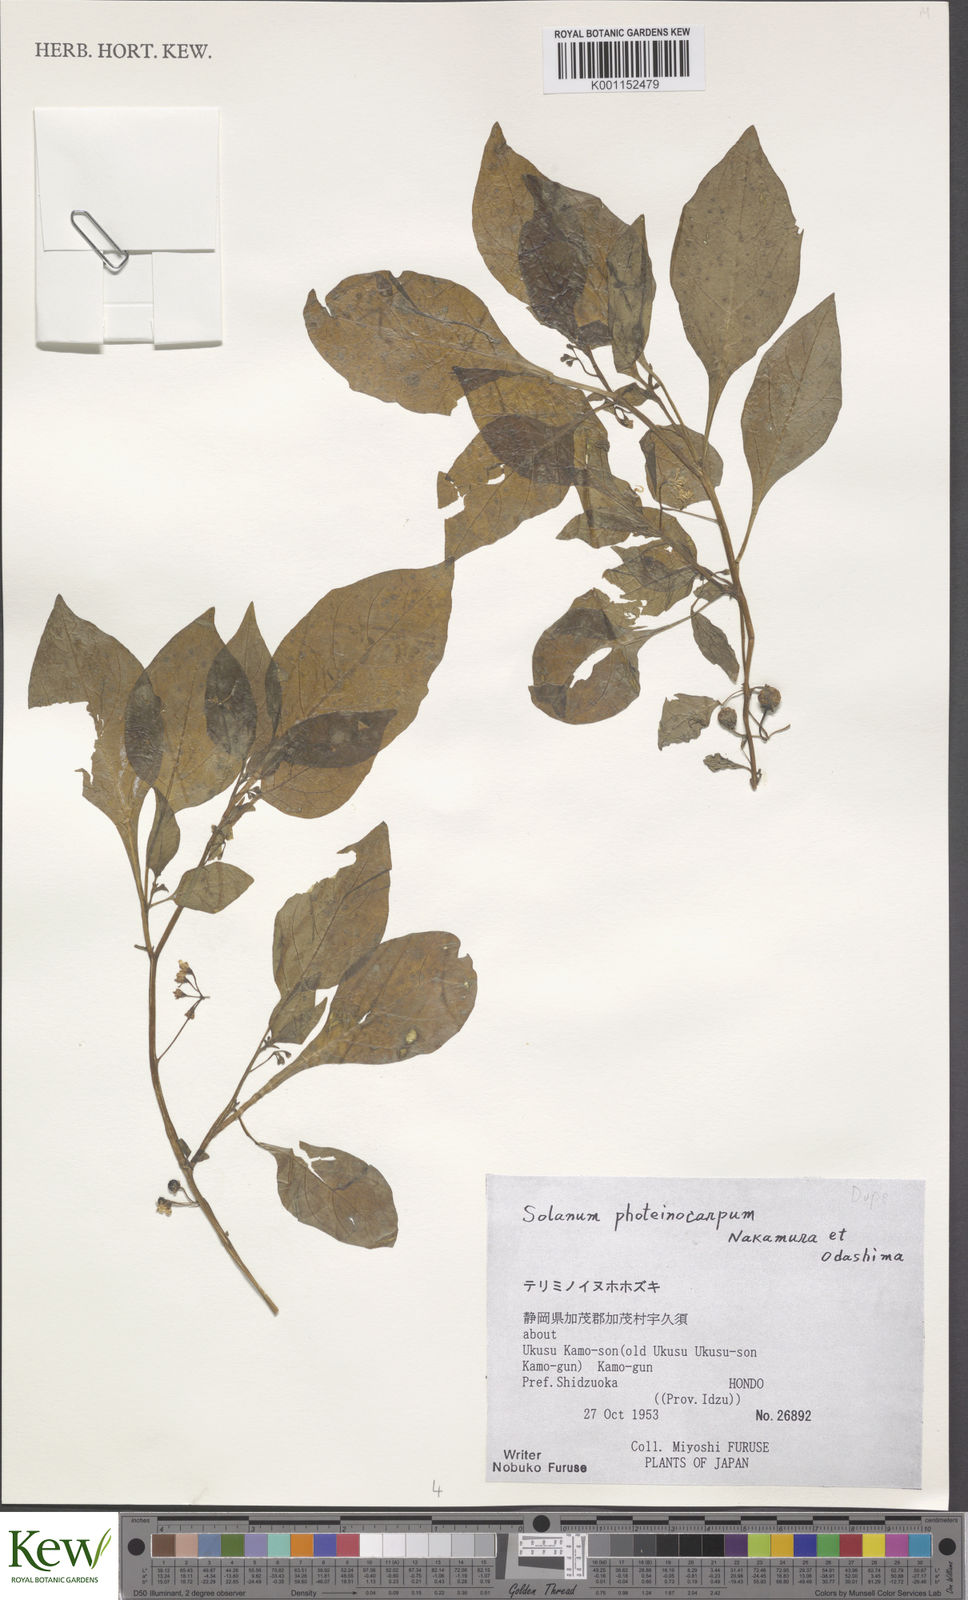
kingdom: Plantae
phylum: Tracheophyta
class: Magnoliopsida
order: Solanales
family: Solanaceae
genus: Solanum
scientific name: Solanum americanum
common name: American black nightshade
